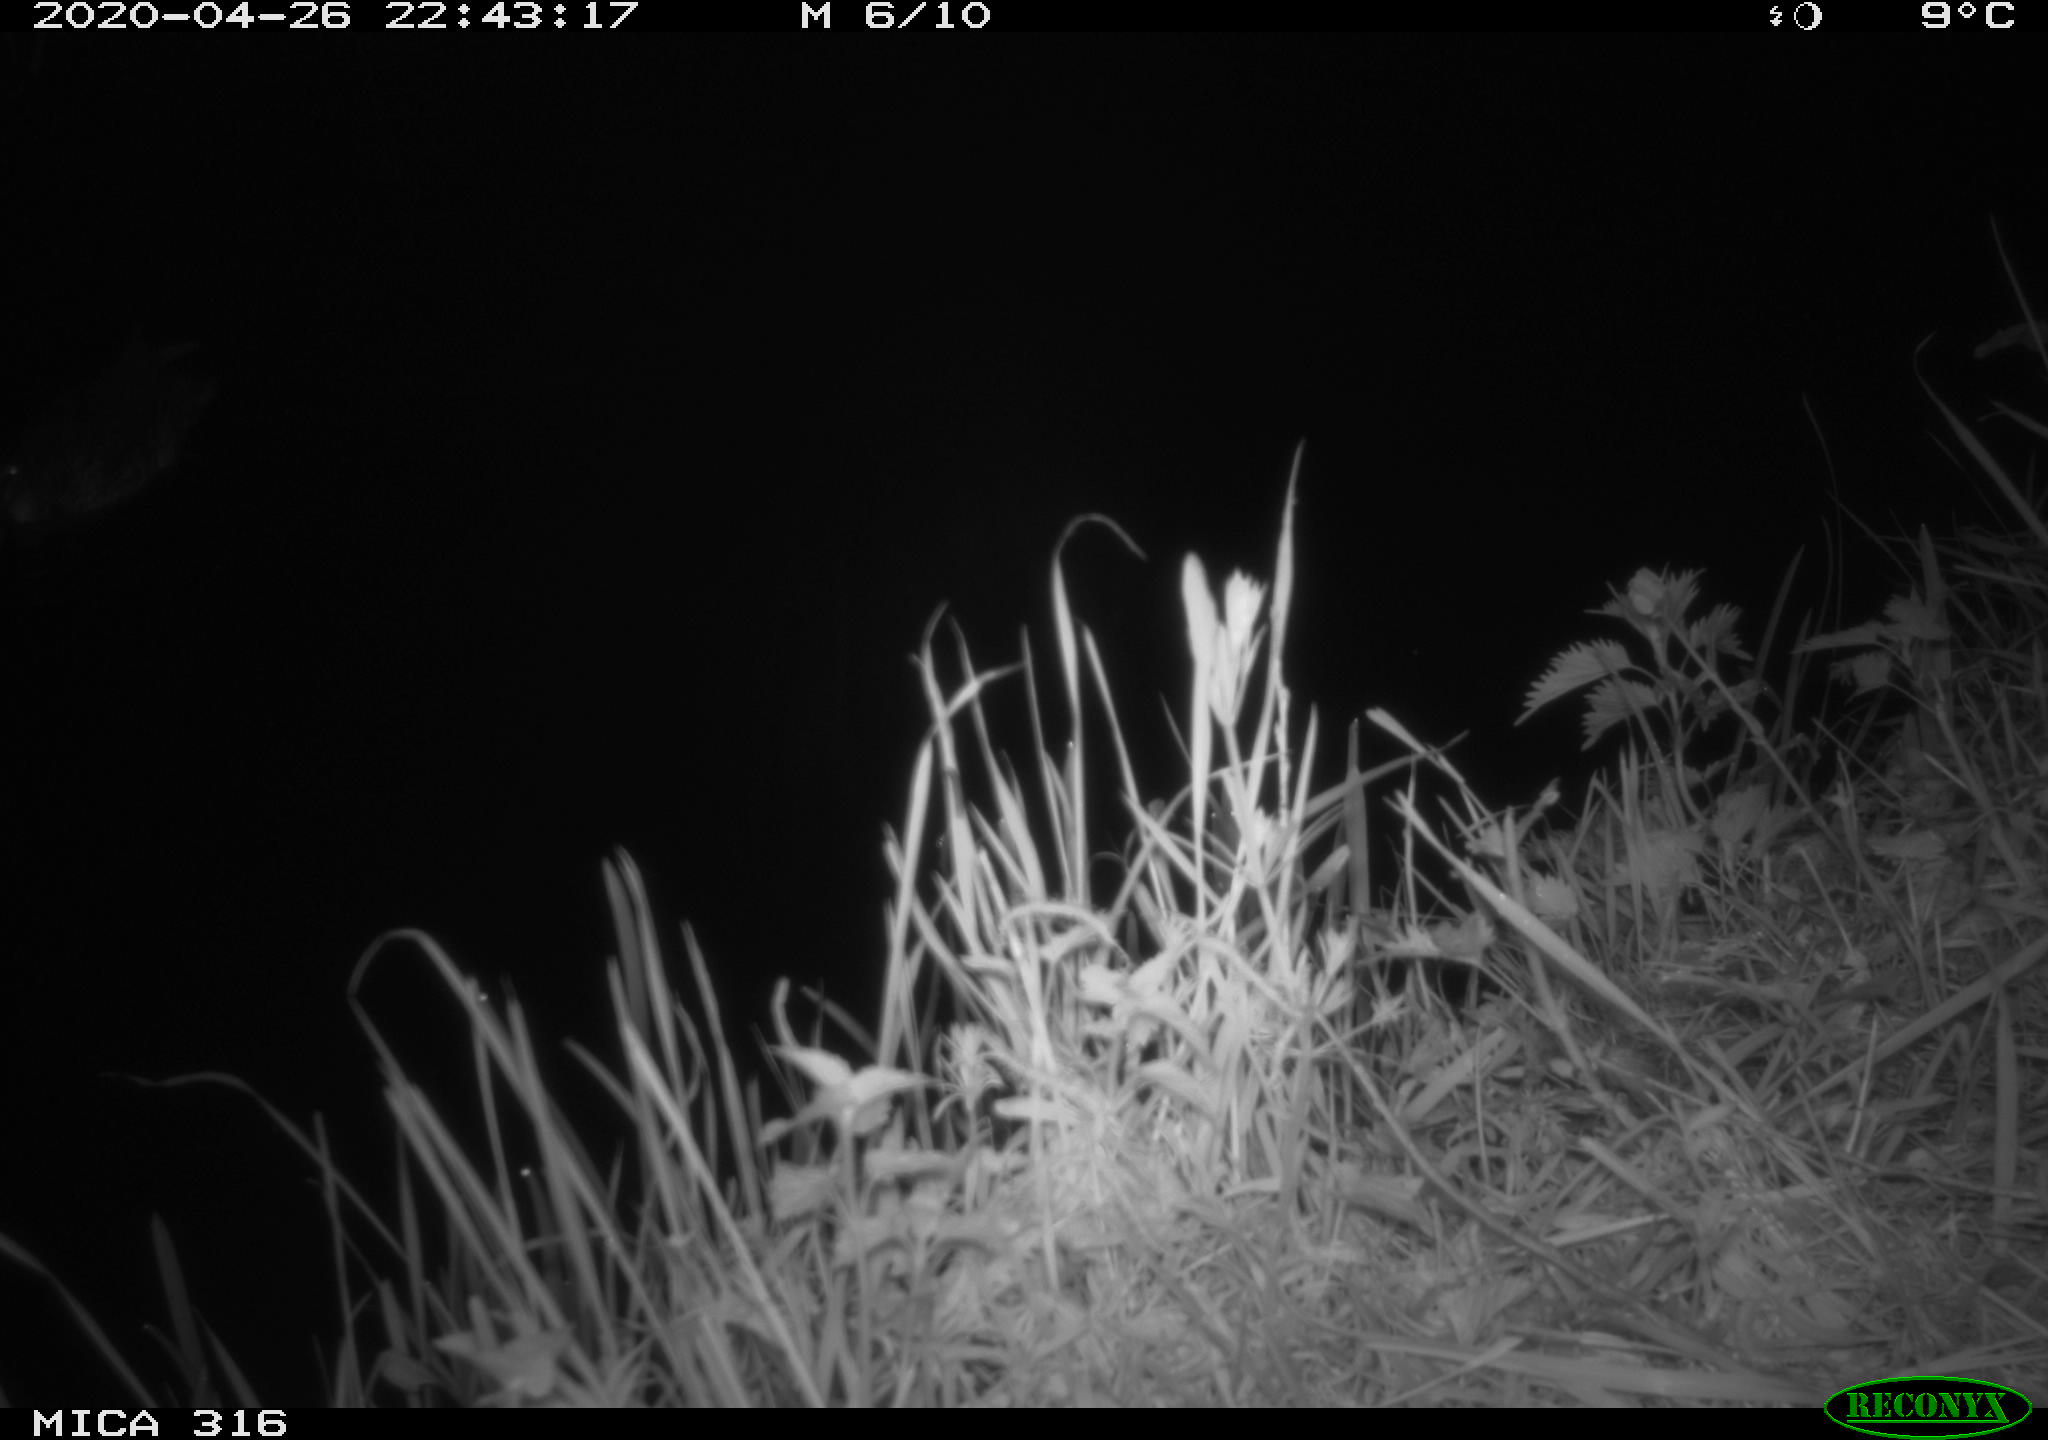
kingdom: Animalia
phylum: Chordata
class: Aves
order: Anseriformes
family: Anatidae
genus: Anas
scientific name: Anas platyrhynchos
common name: Mallard
